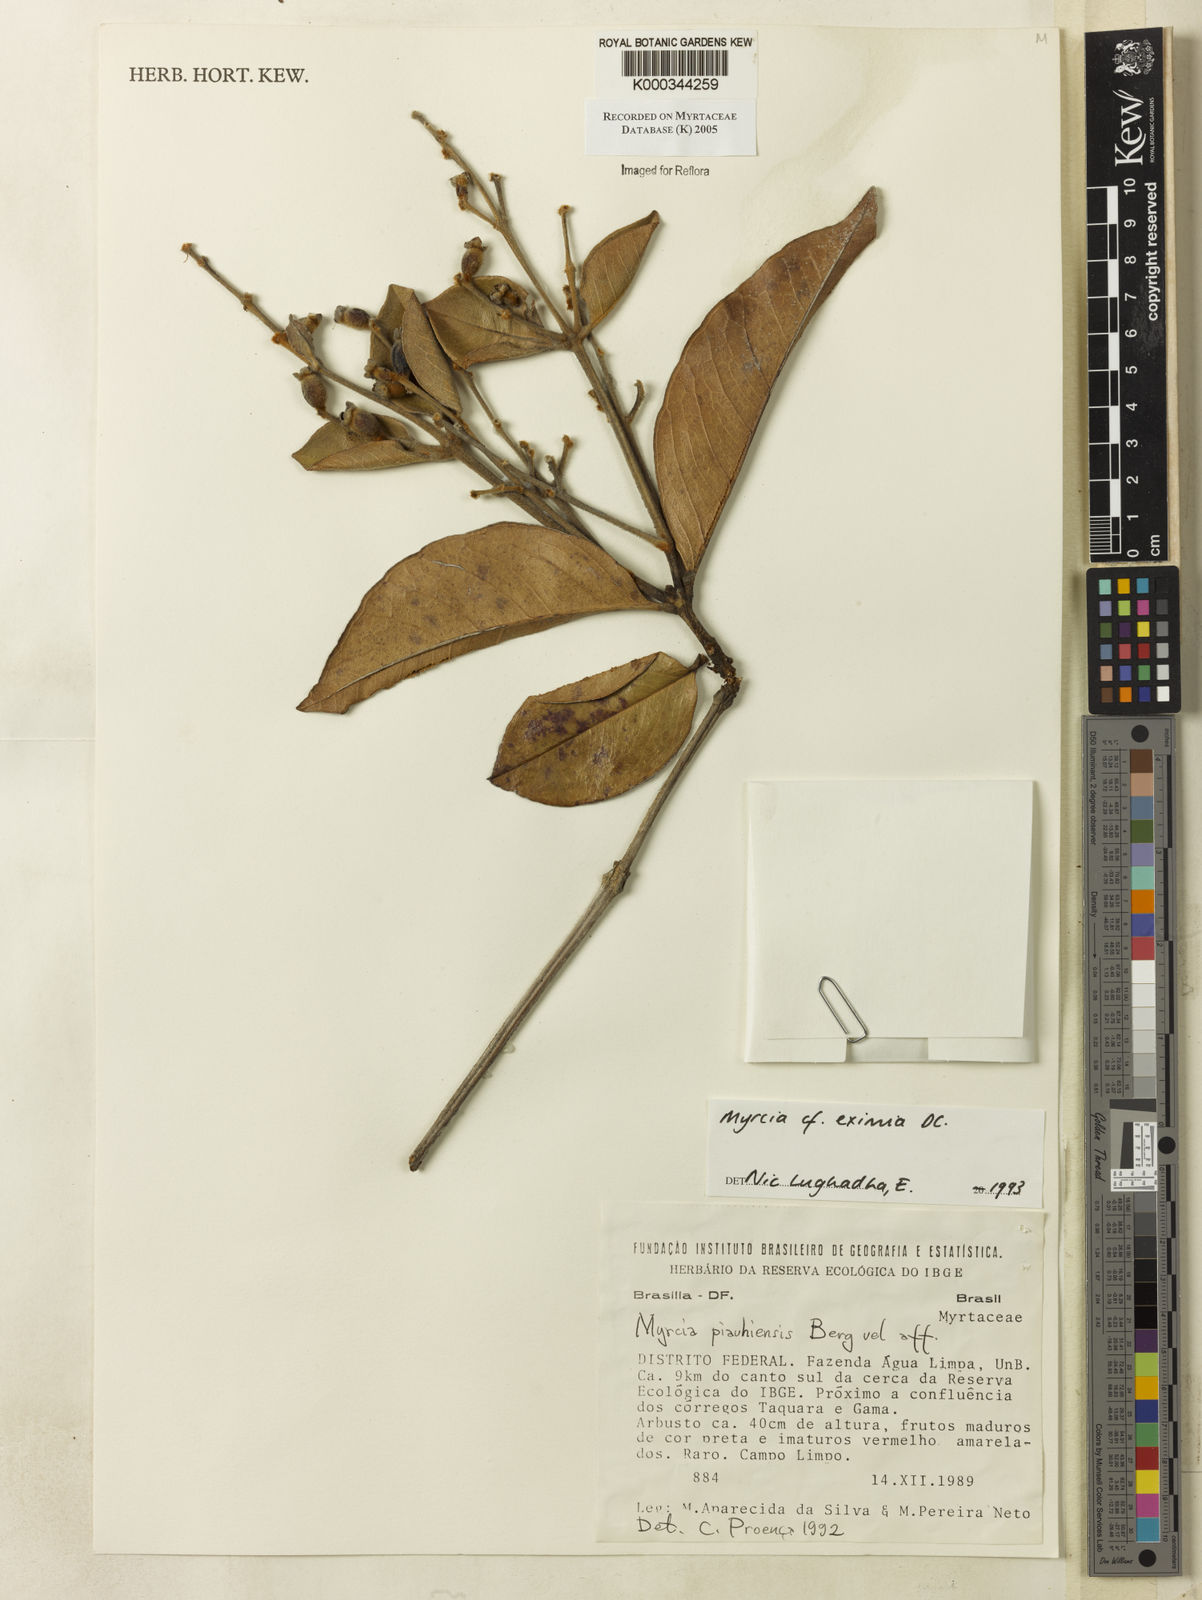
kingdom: Plantae
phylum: Tracheophyta
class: Magnoliopsida
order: Myrtales
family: Myrtaceae
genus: Myrcia
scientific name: Myrcia eximia
